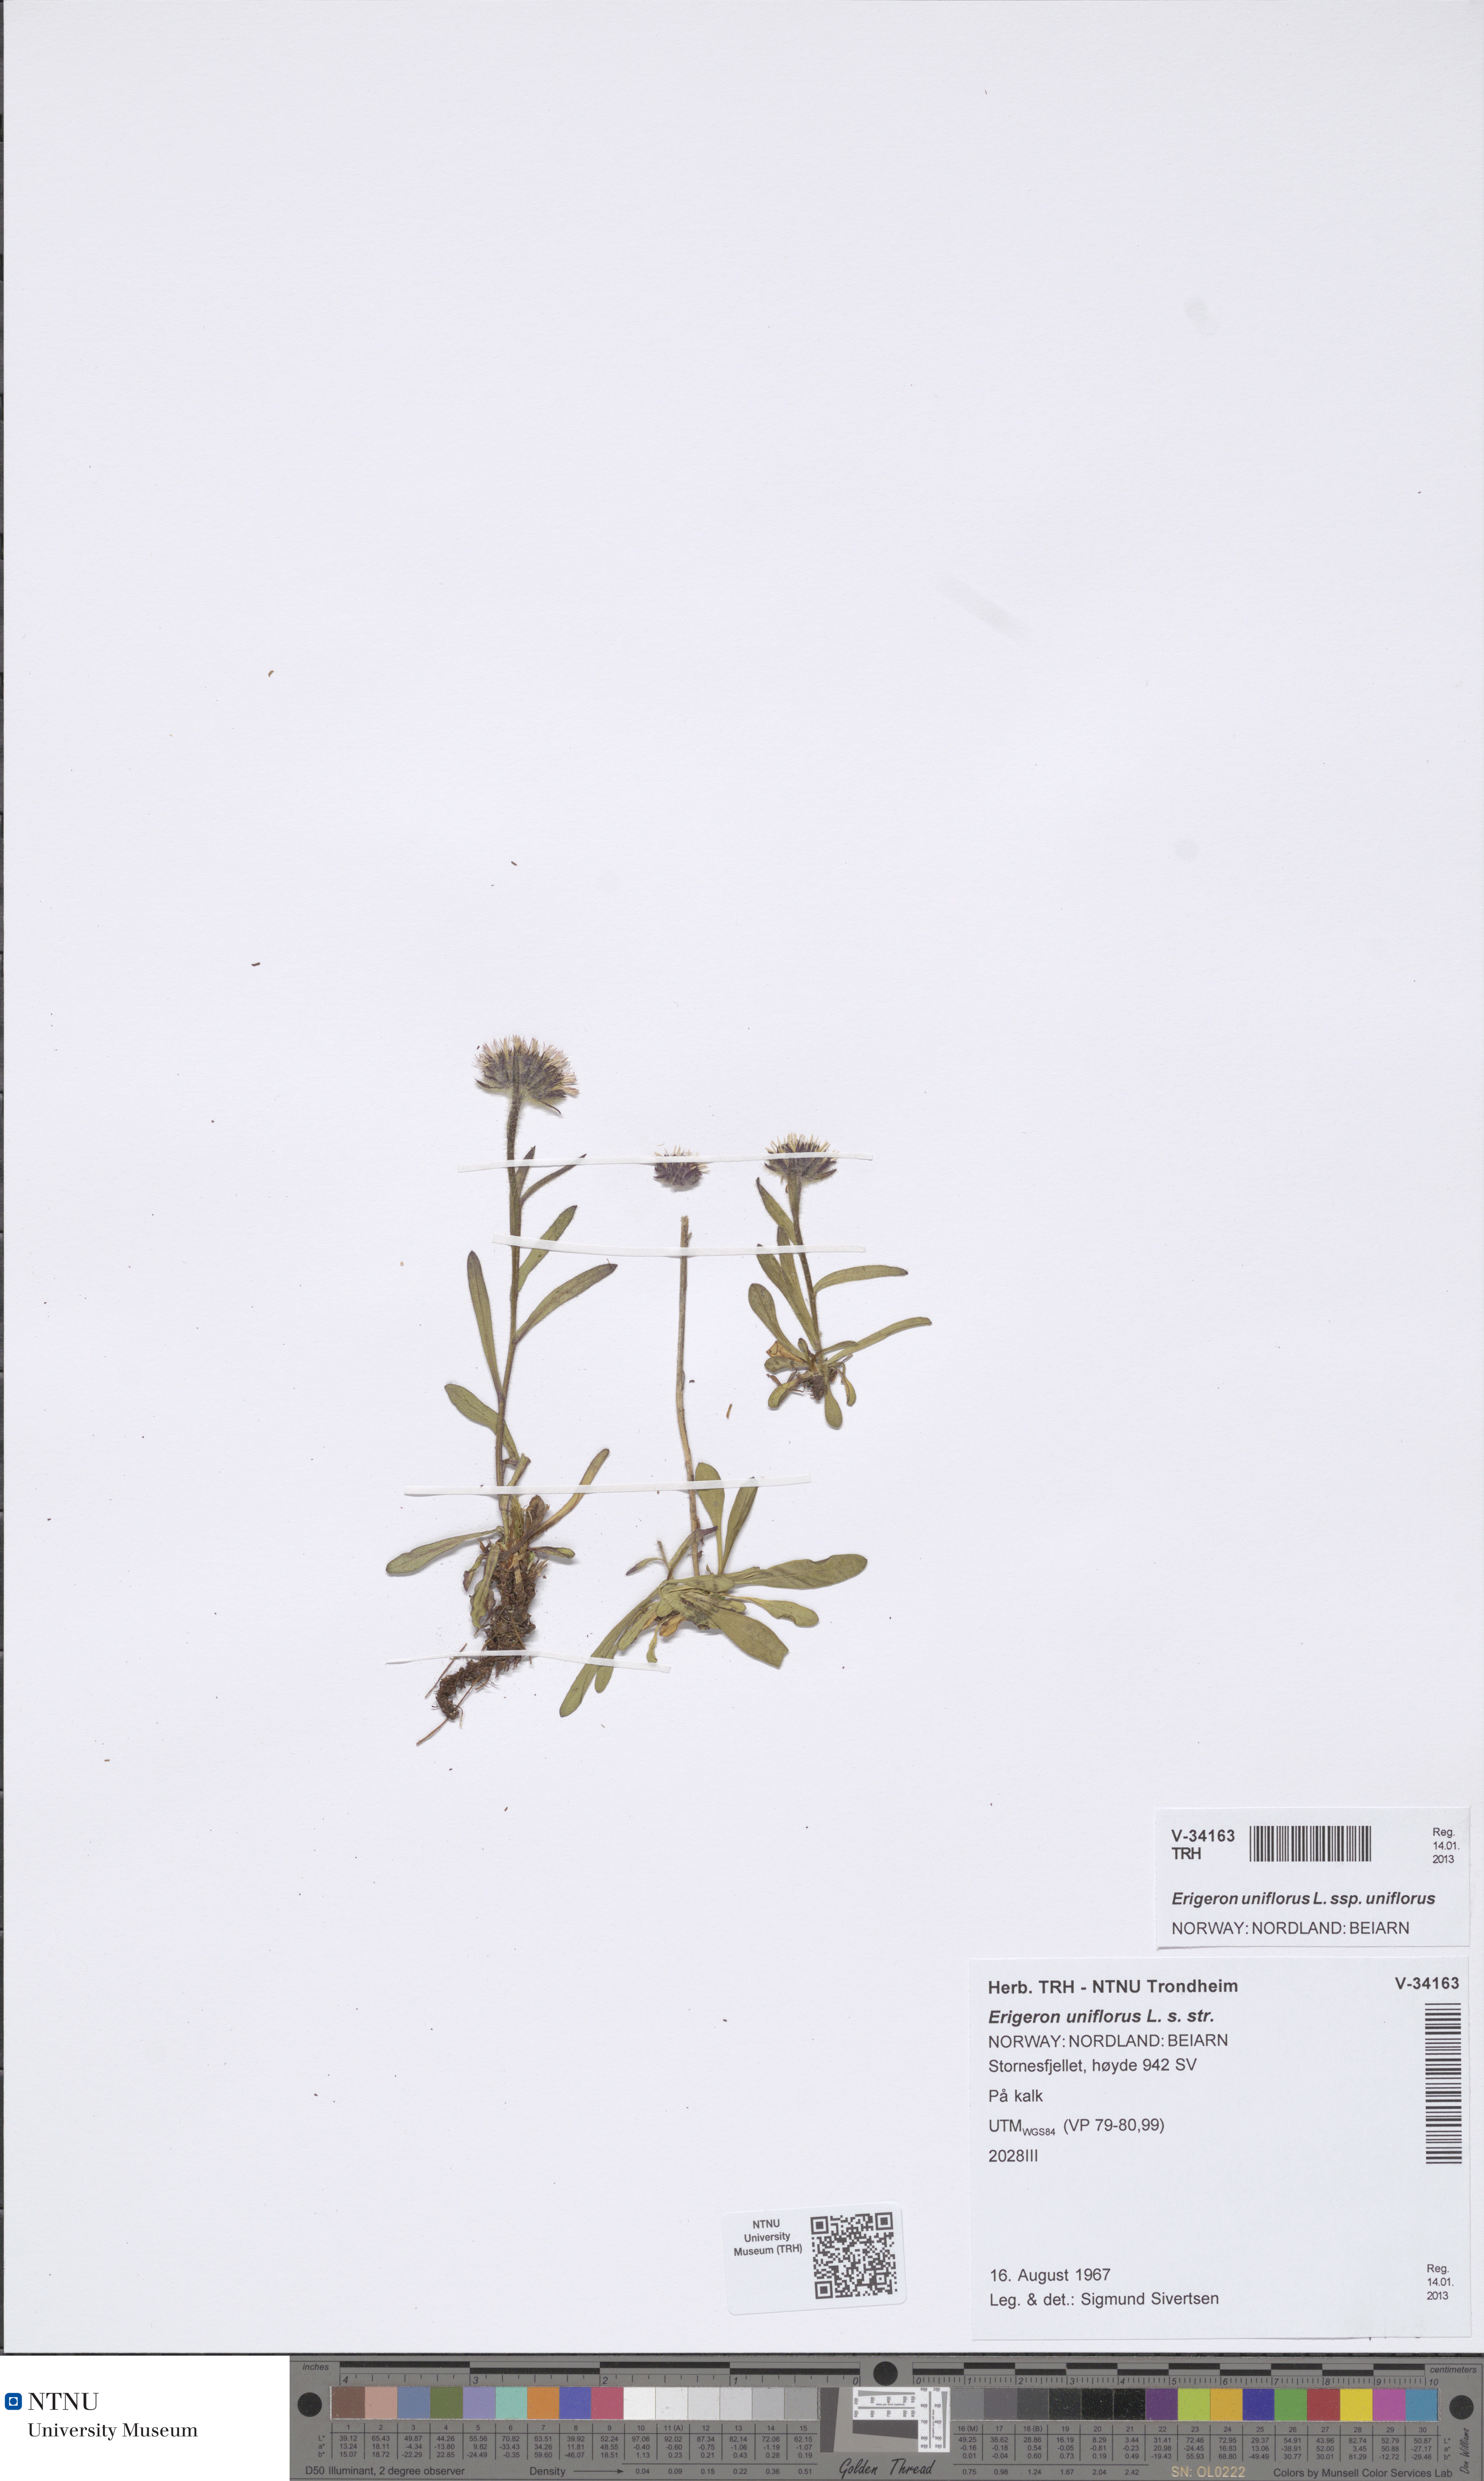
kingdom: Plantae
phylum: Tracheophyta
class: Magnoliopsida
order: Asterales
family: Asteraceae
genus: Erigeron
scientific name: Erigeron uniflorus
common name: Northern daisy
